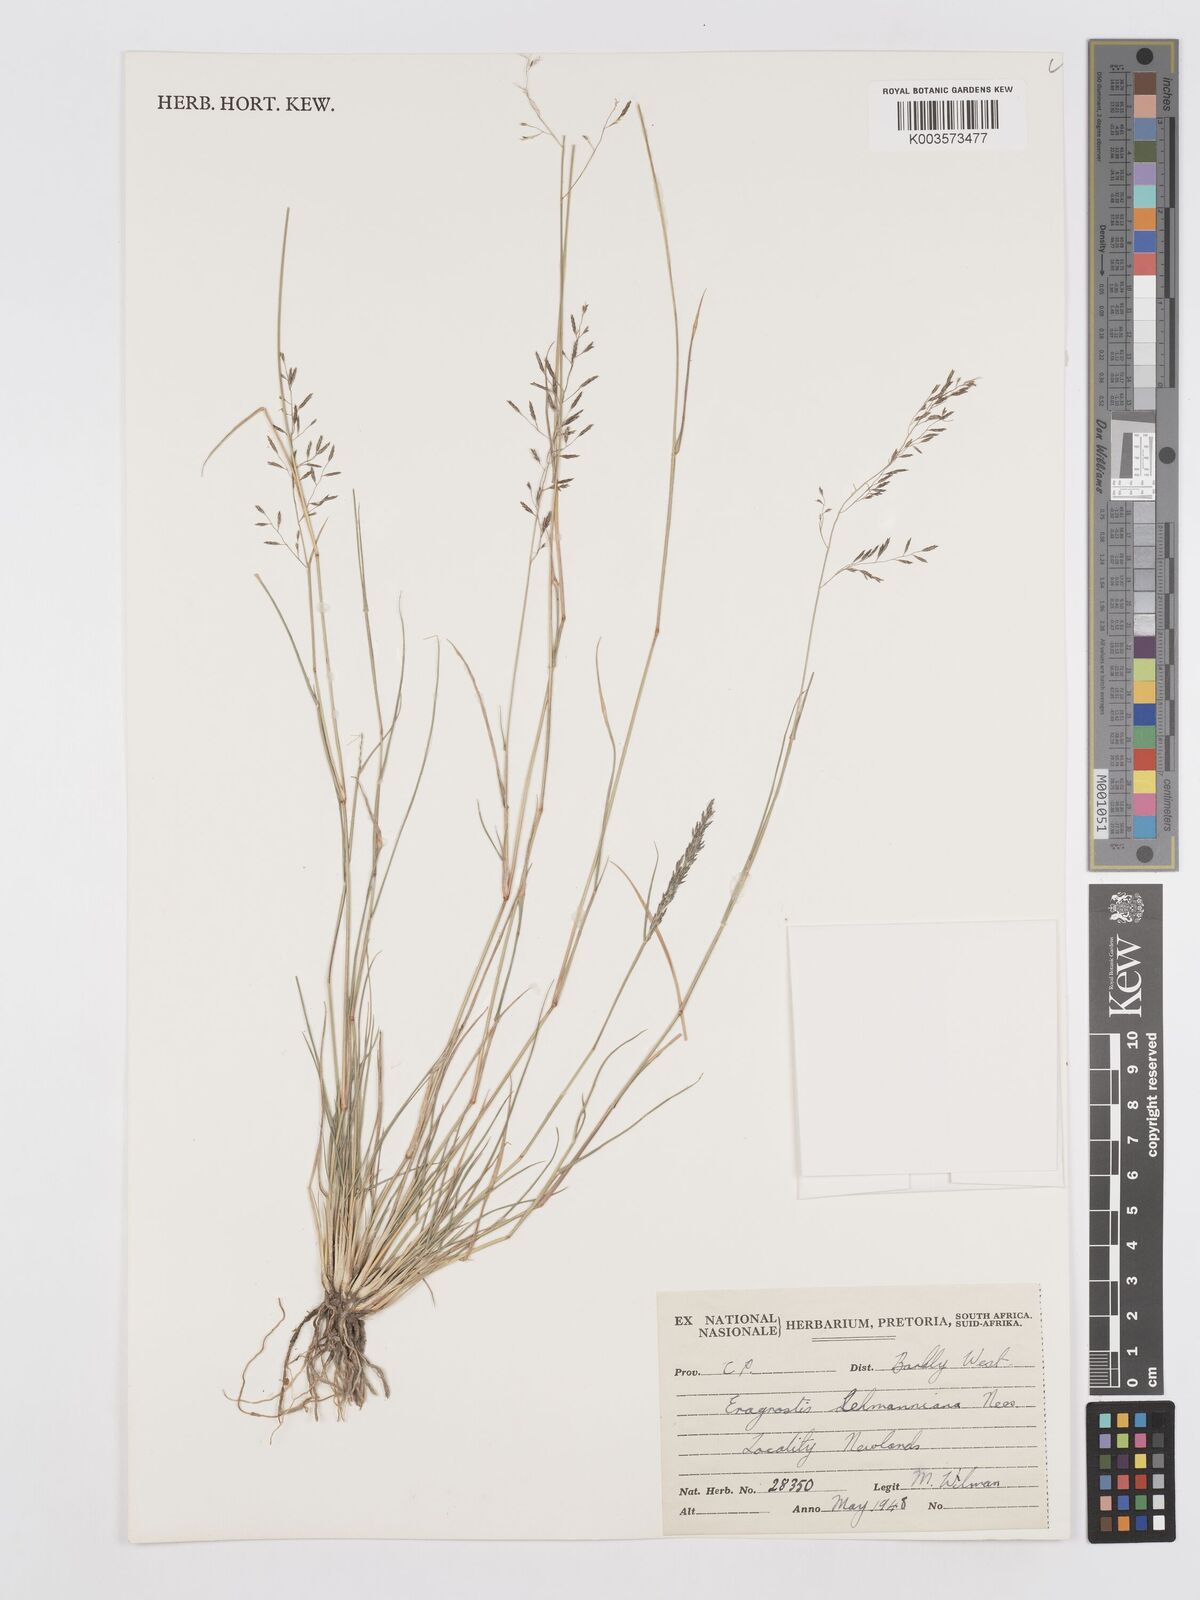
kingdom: Plantae
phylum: Tracheophyta
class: Liliopsida
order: Poales
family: Poaceae
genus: Eragrostis
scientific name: Eragrostis lehmanniana
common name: Lehmann lovegrass
